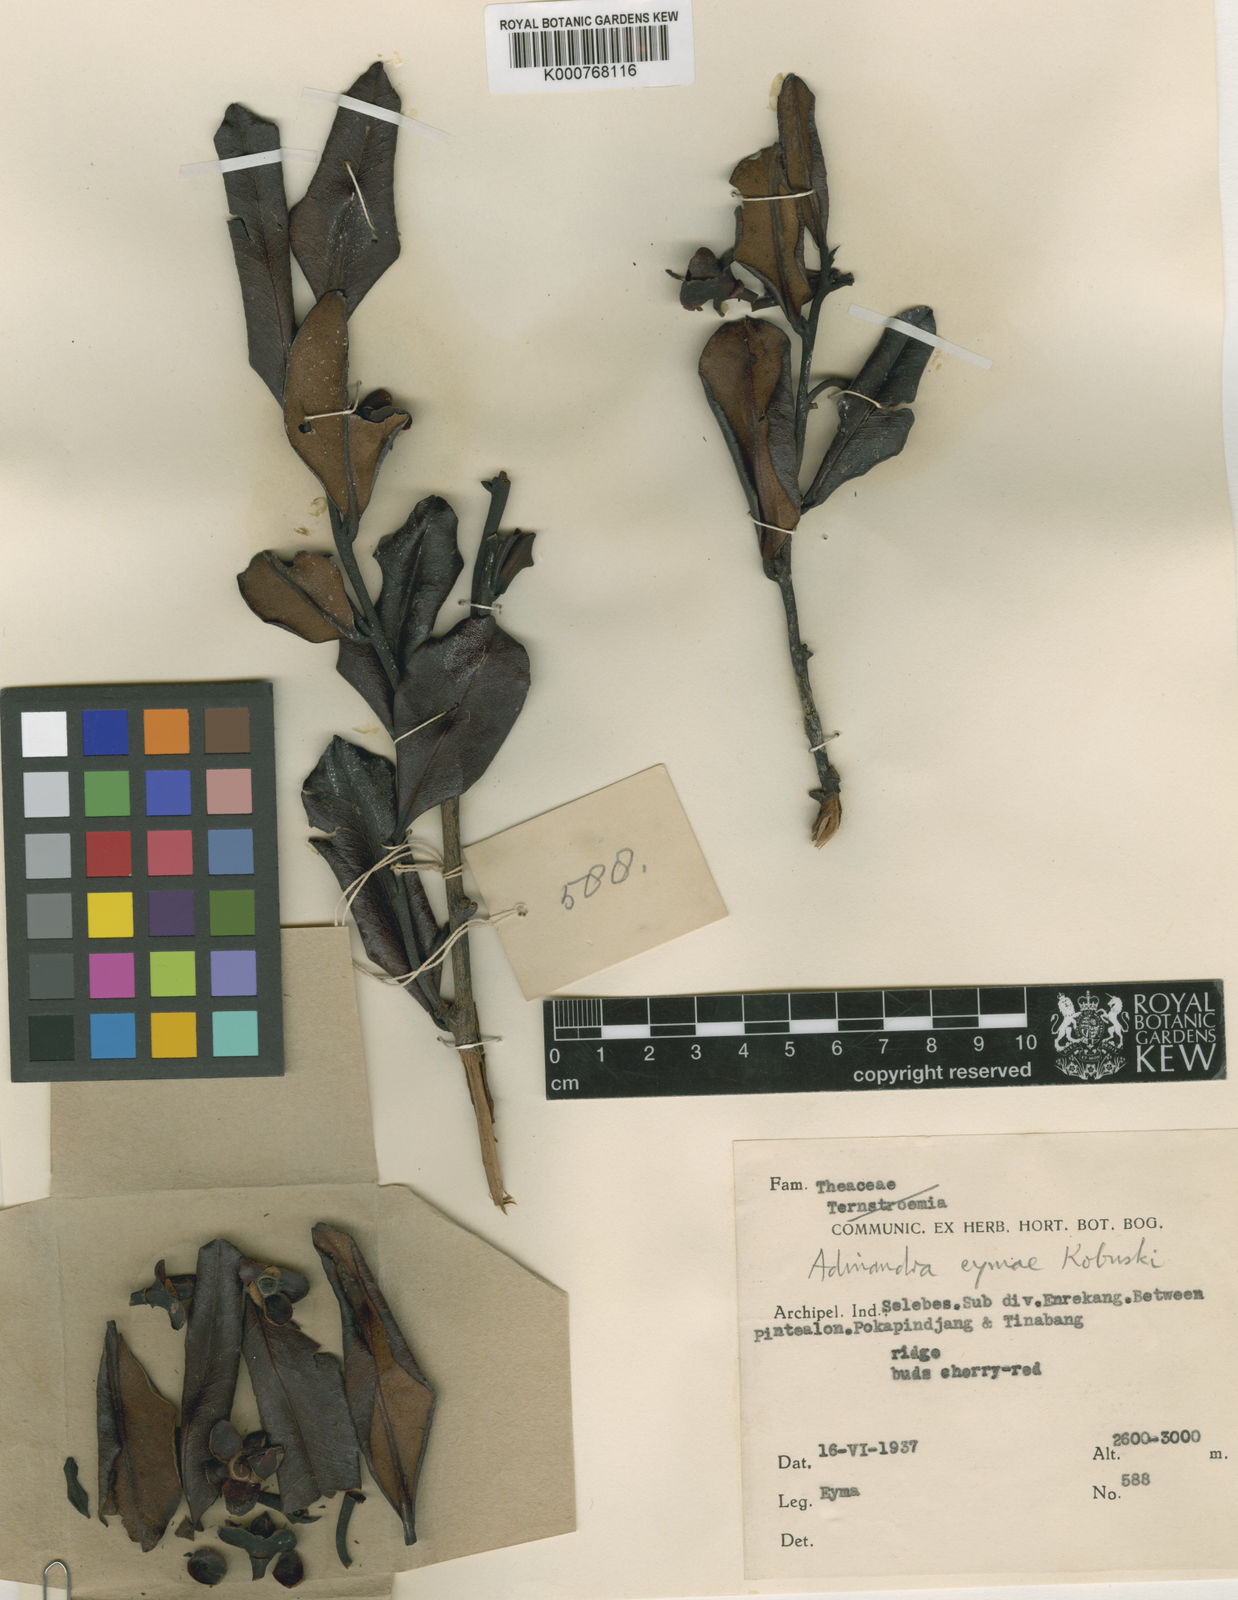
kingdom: Plantae
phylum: Tracheophyta
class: Magnoliopsida
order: Ericales
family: Pentaphylacaceae
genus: Adinandra
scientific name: Adinandra eymae
